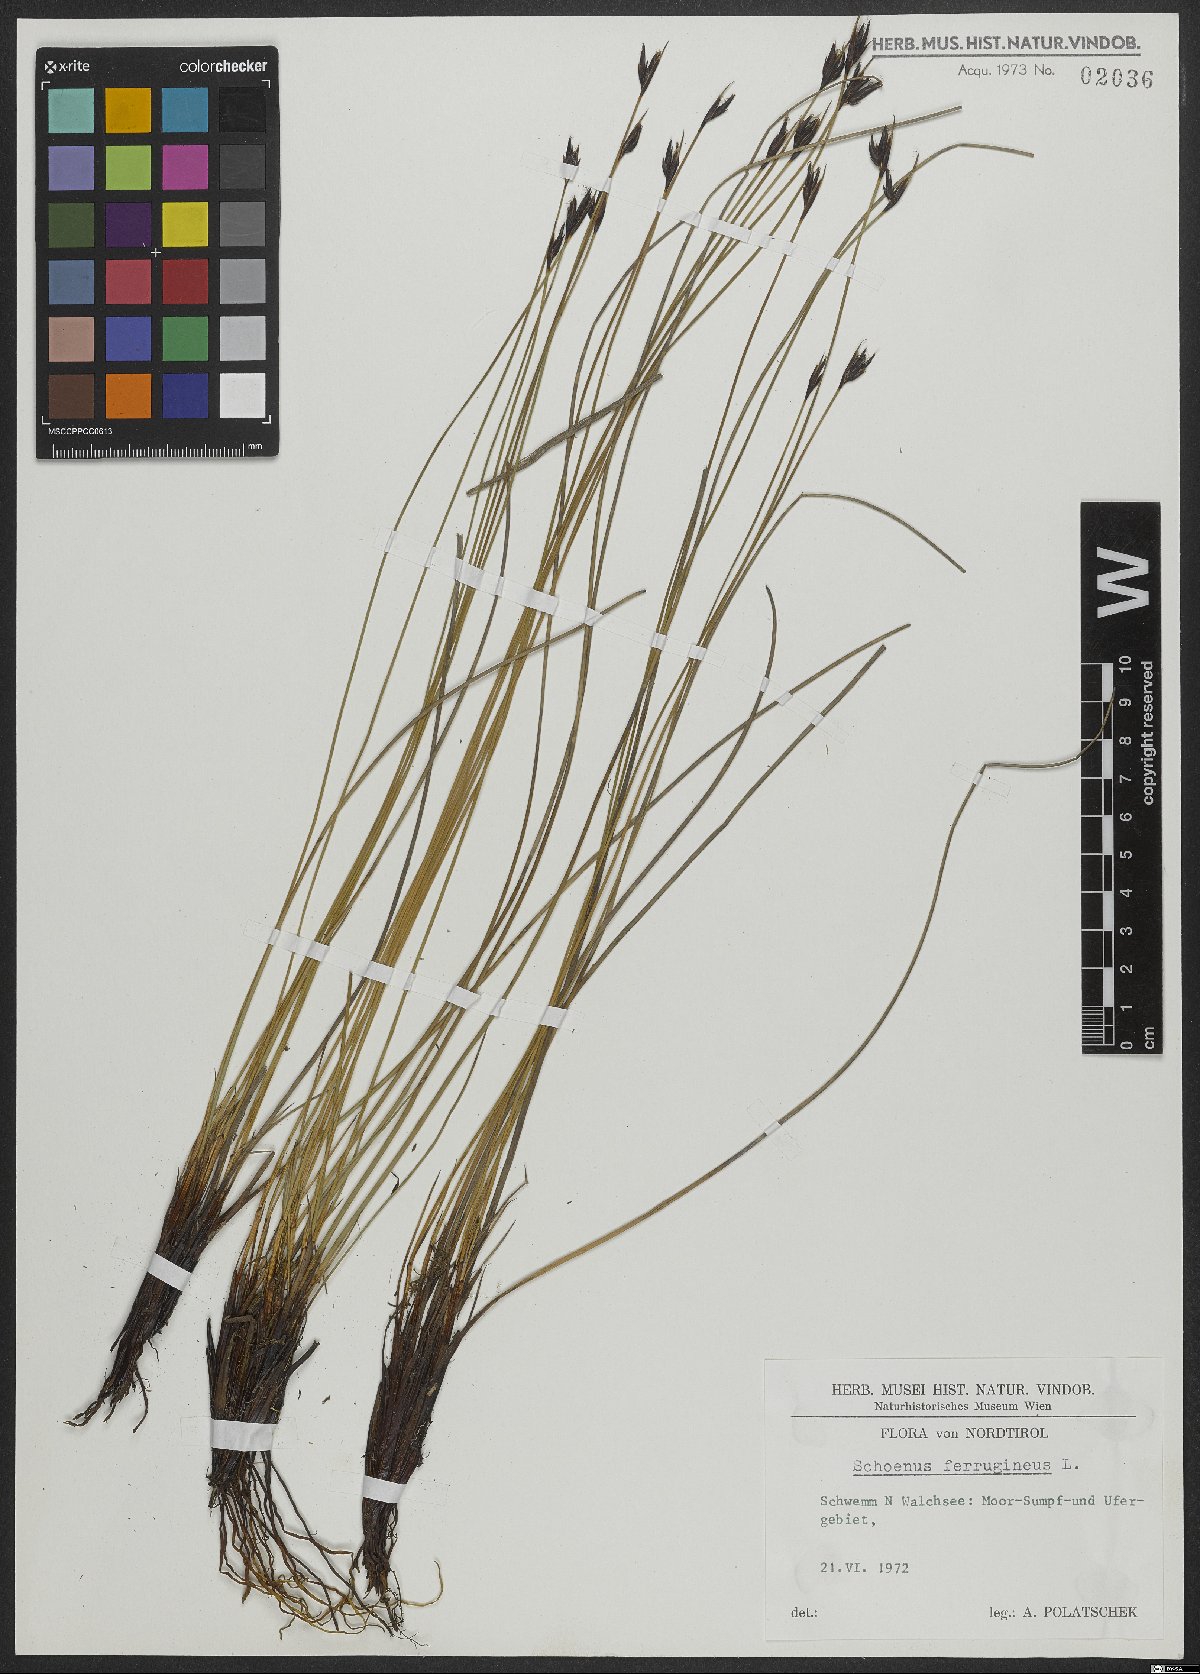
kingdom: Plantae
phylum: Tracheophyta
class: Liliopsida
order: Poales
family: Cyperaceae
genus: Schoenus
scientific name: Schoenus ferrugineus
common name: Brown bog-rush
